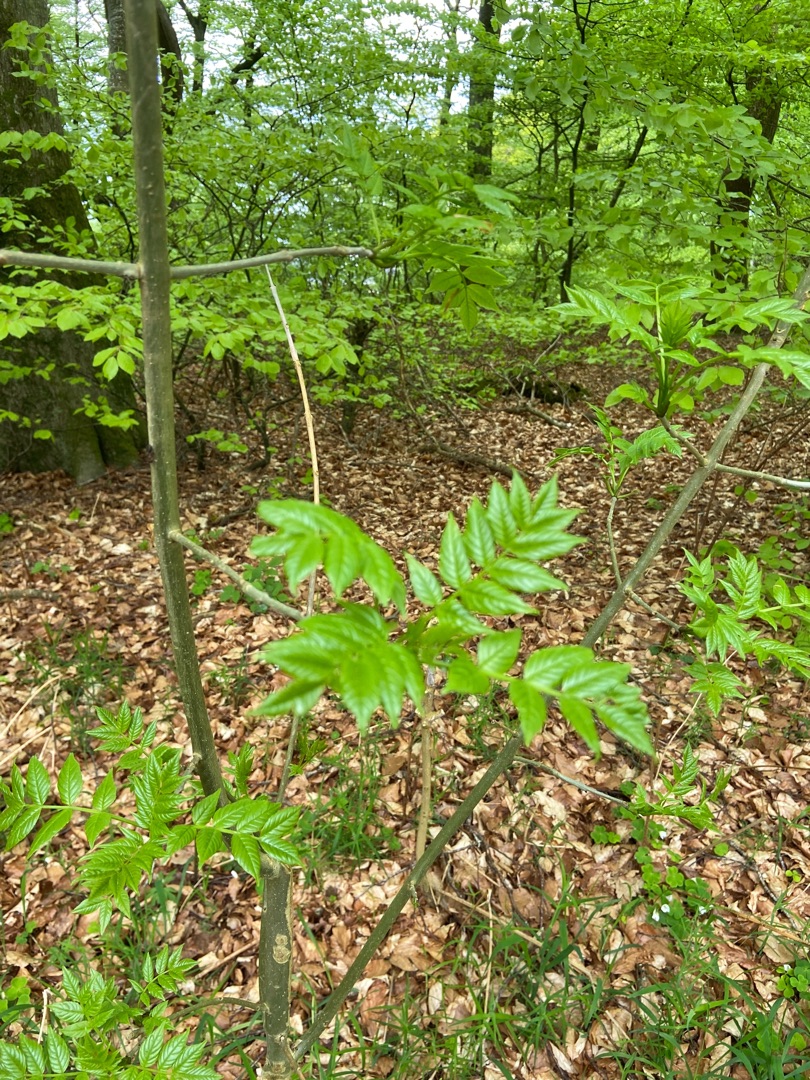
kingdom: Plantae
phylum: Tracheophyta
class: Magnoliopsida
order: Lamiales
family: Oleaceae
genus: Fraxinus
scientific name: Fraxinus excelsior
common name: Ask
